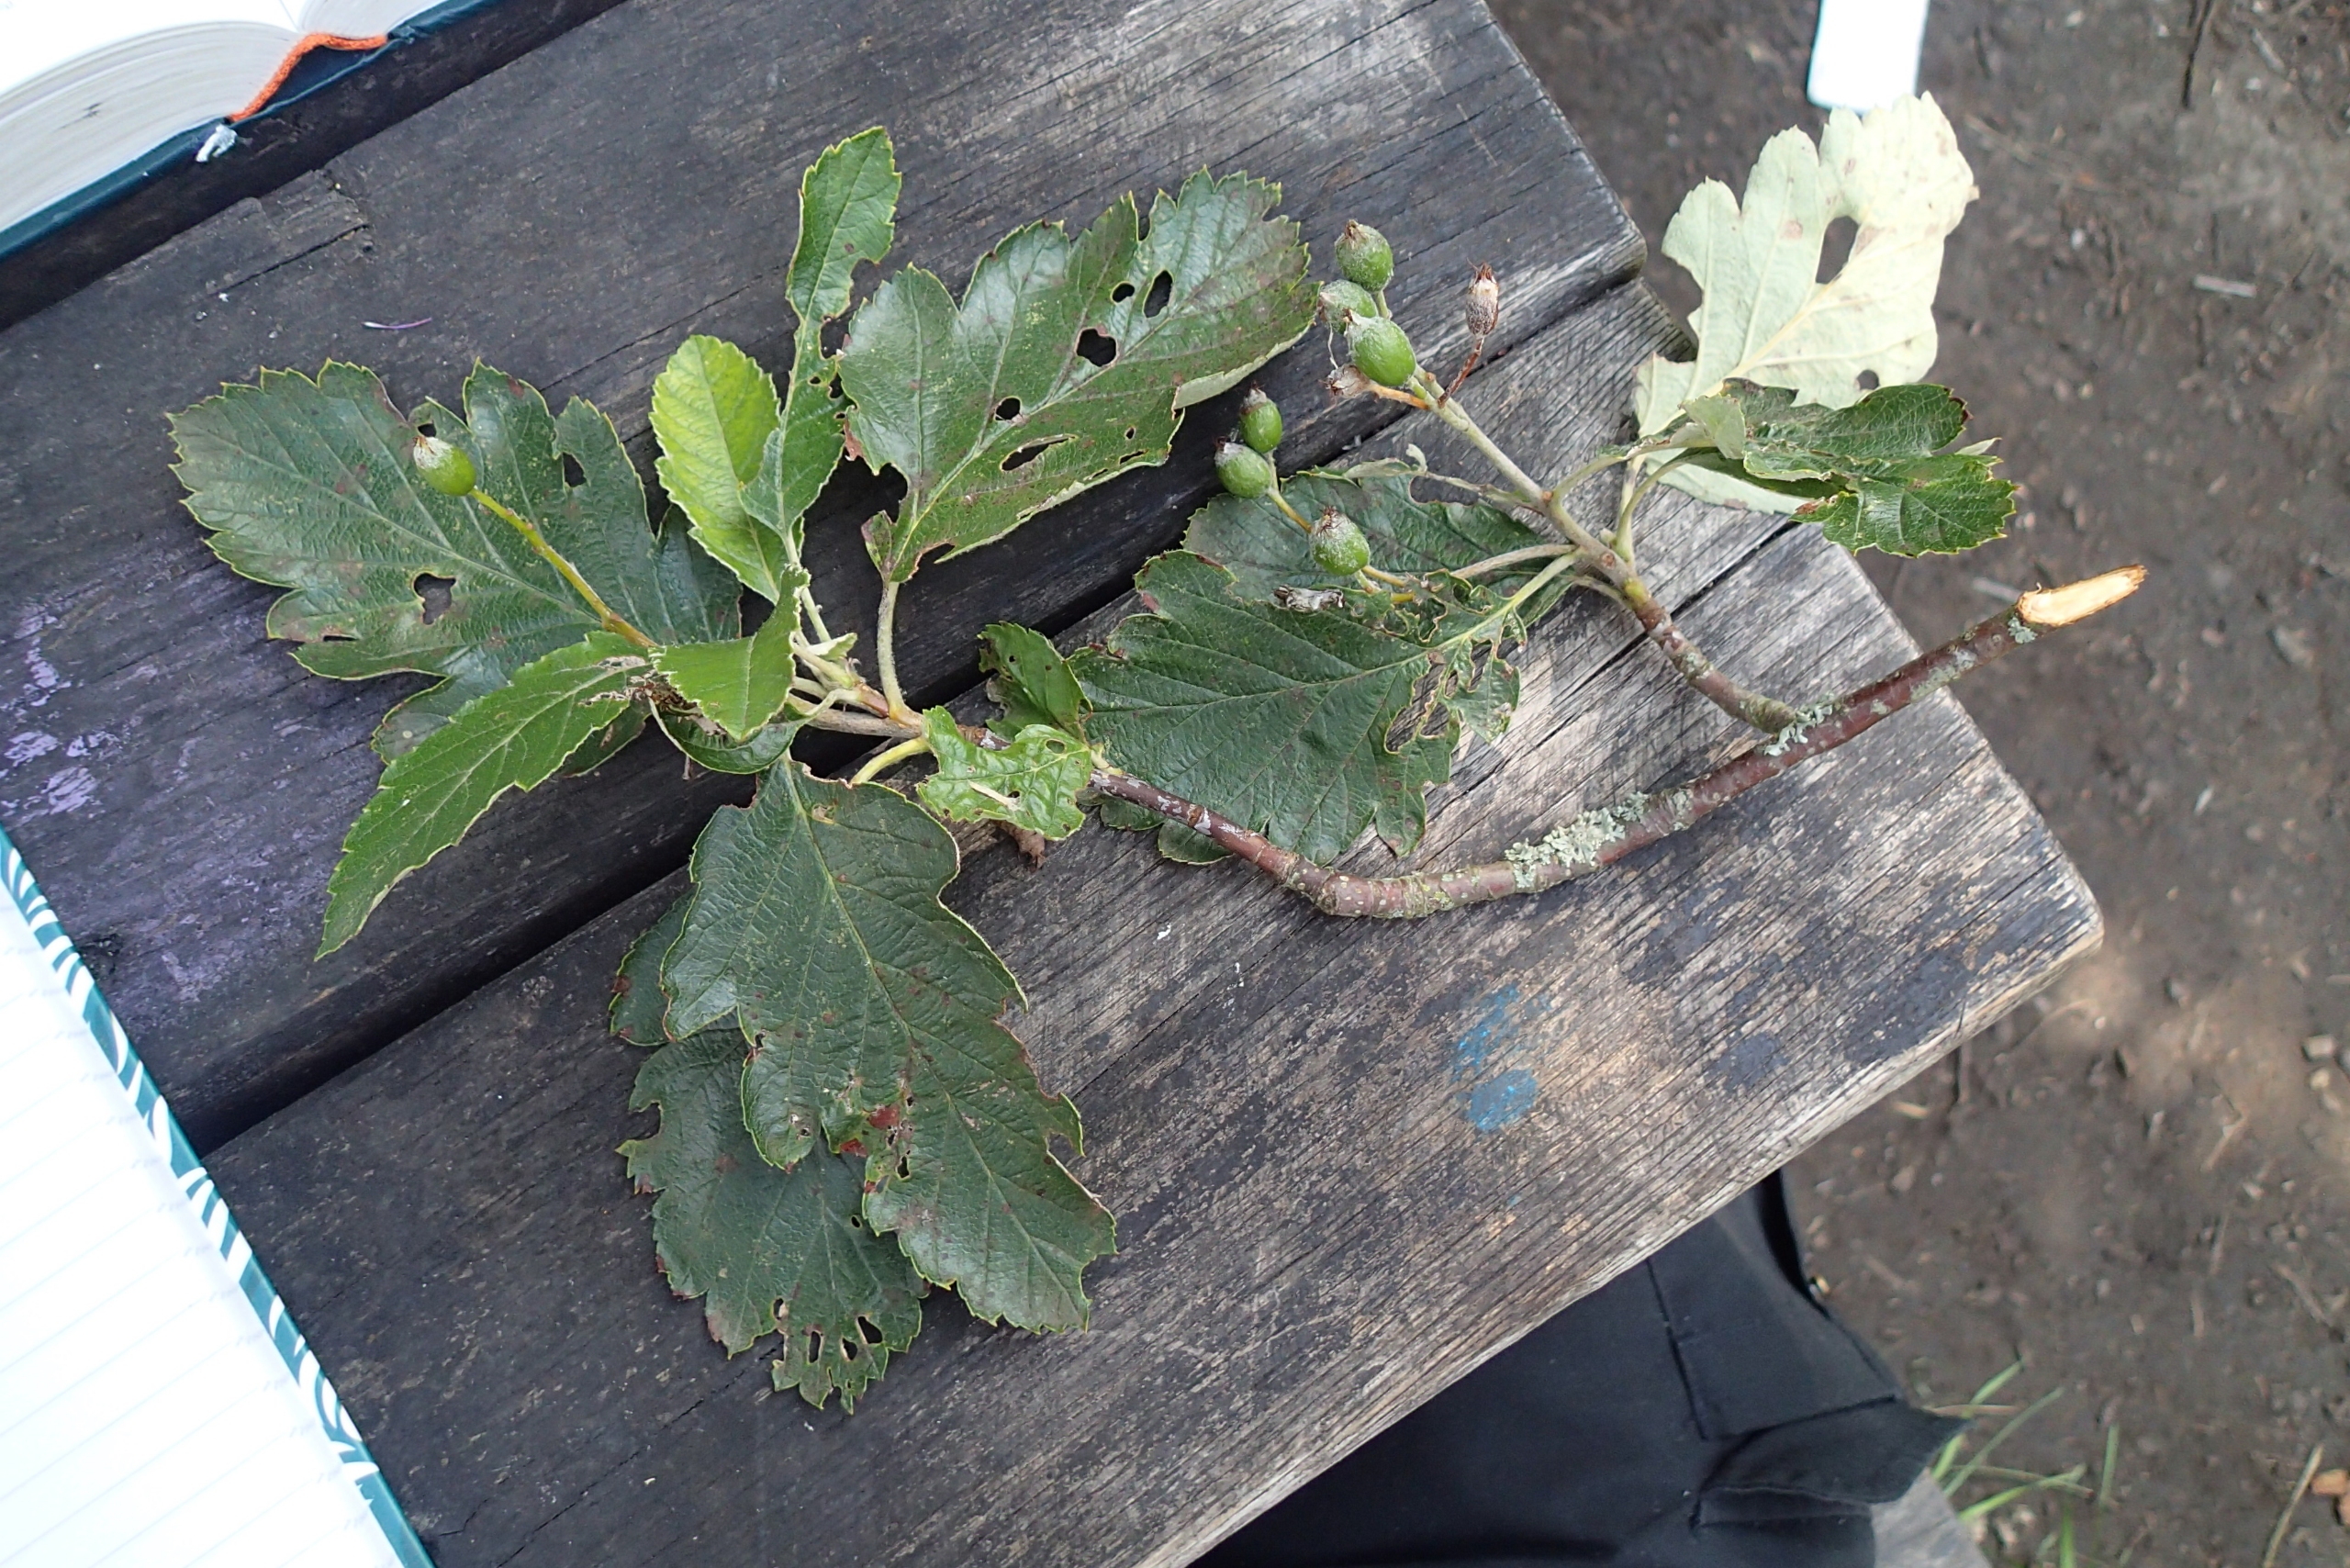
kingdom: Plantae
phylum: Tracheophyta
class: Magnoliopsida
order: Rosales
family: Rosaceae
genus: Scandosorbus
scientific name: Scandosorbus intermedia
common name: Selje-røn
